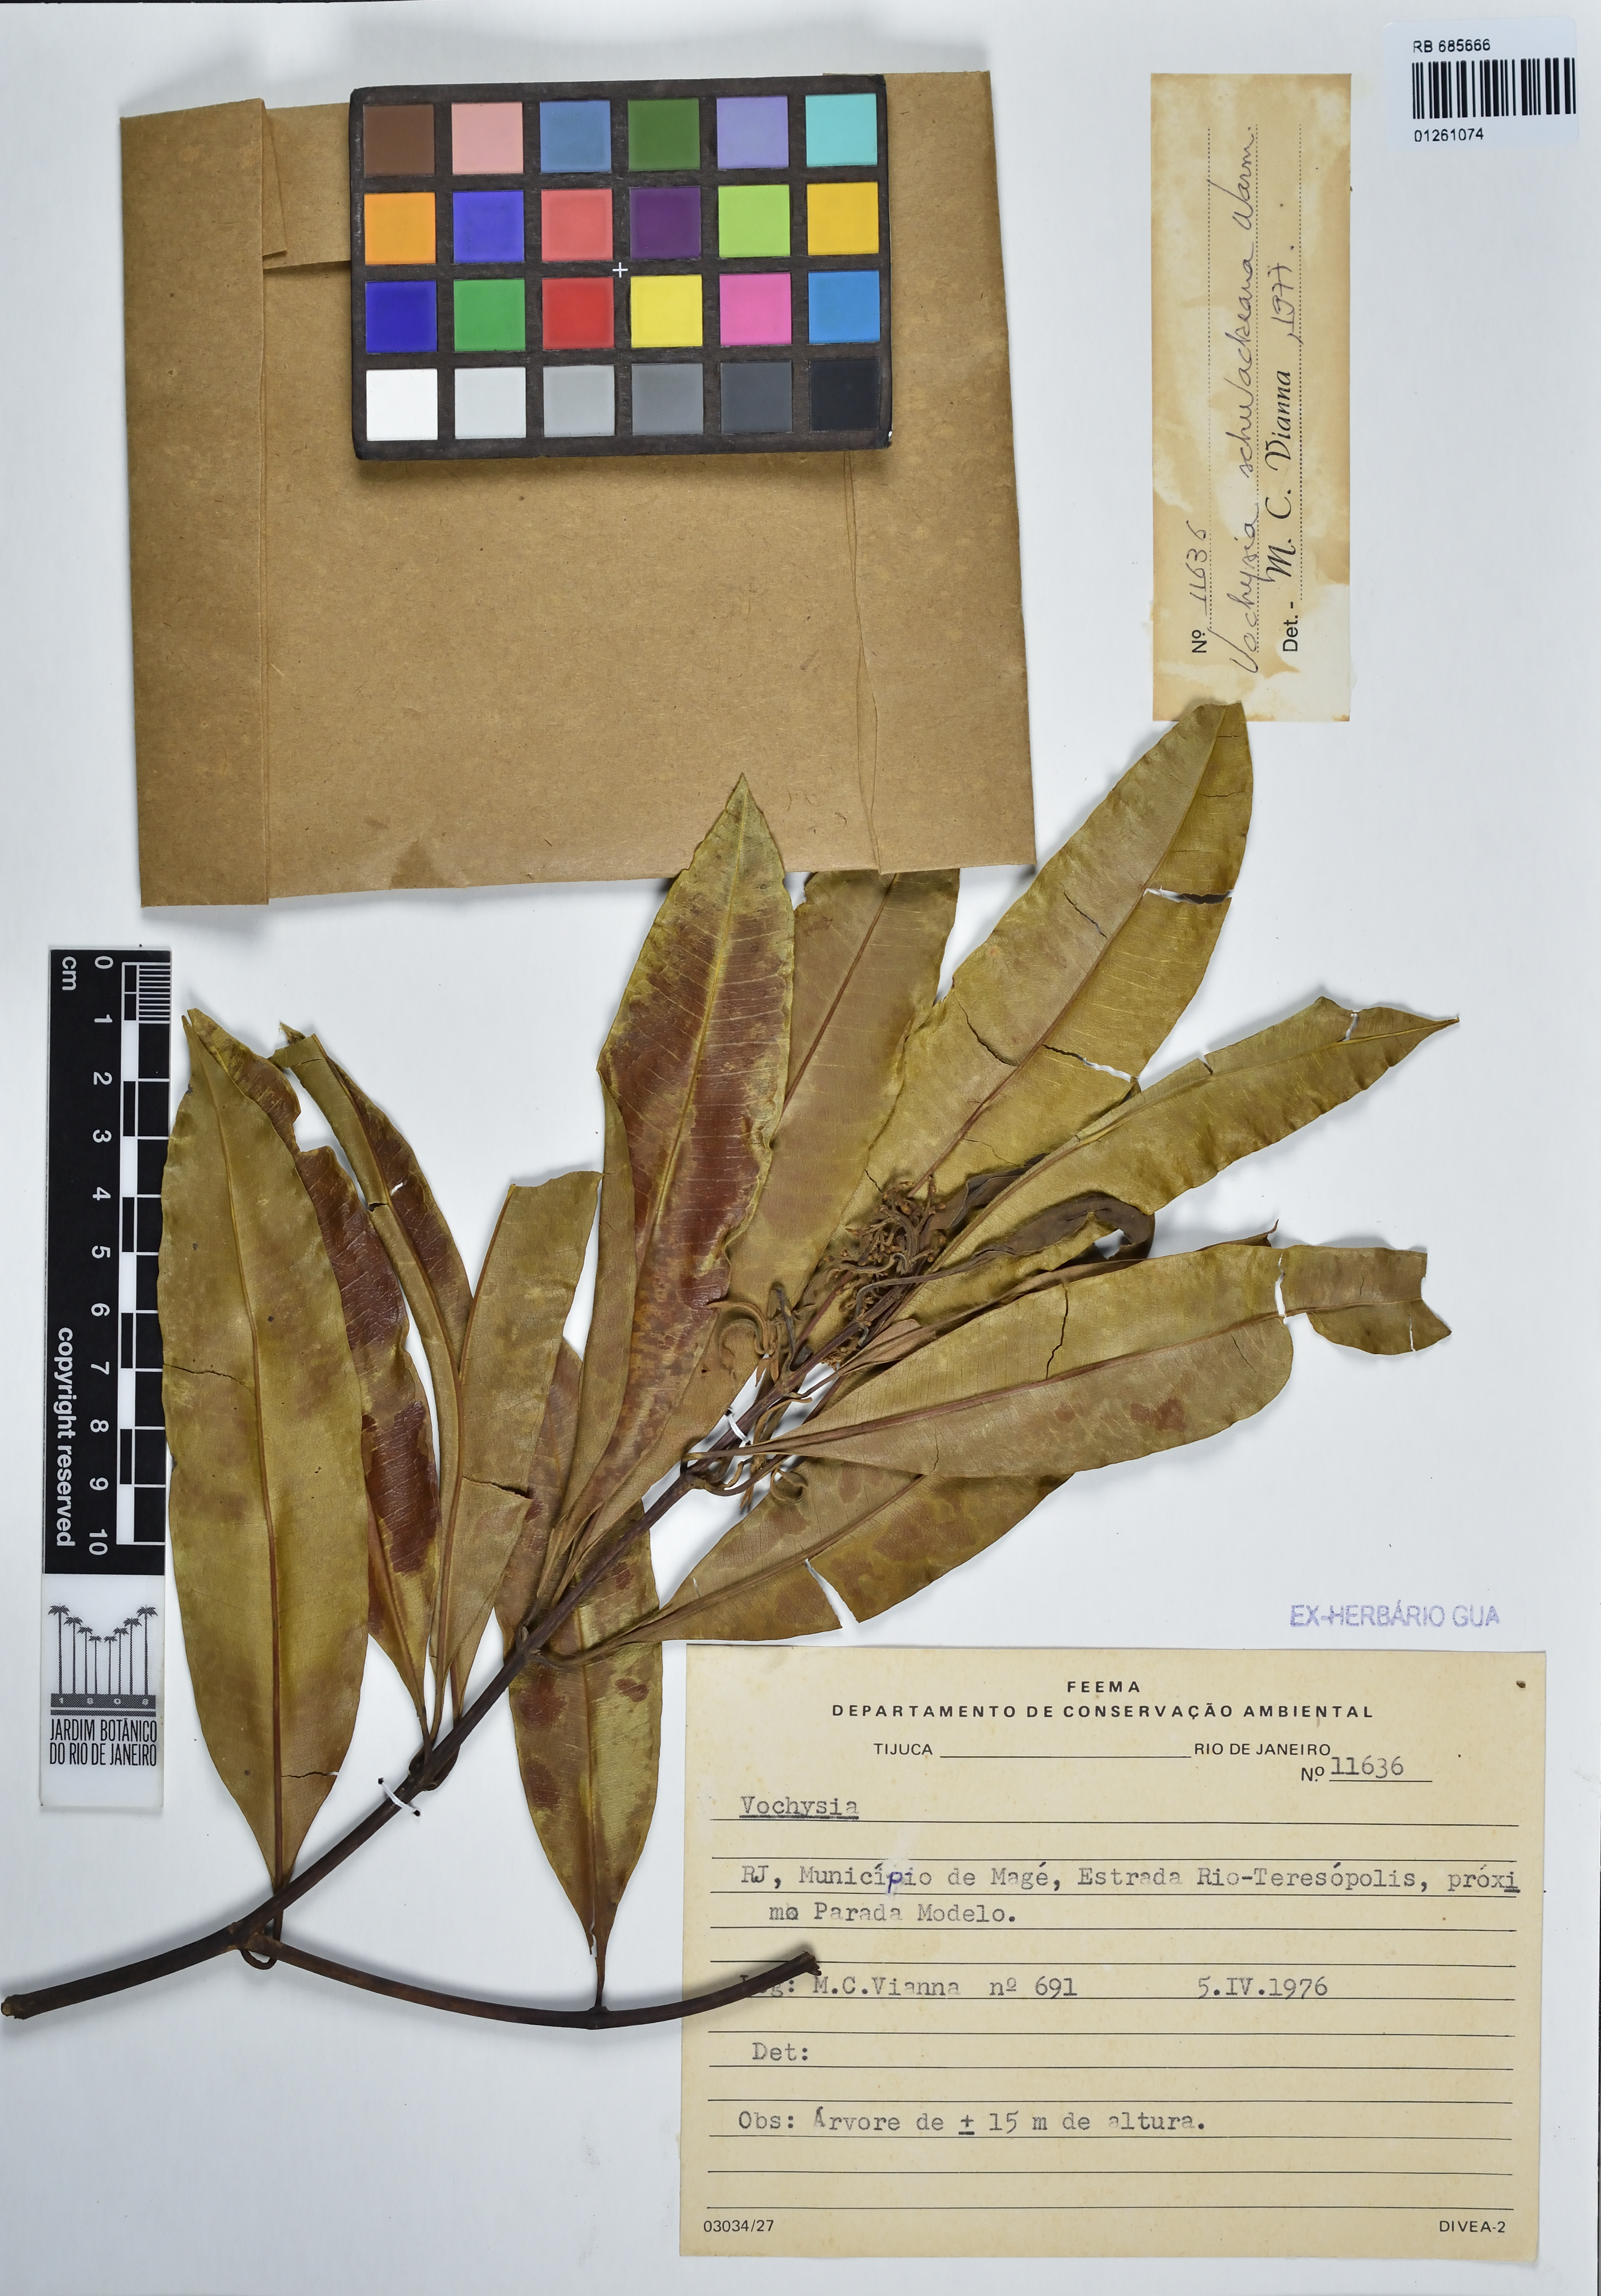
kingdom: Plantae
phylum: Tracheophyta
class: Magnoliopsida
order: Myrtales
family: Vochysiaceae
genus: Vochysia
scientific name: Vochysia schwackeana
